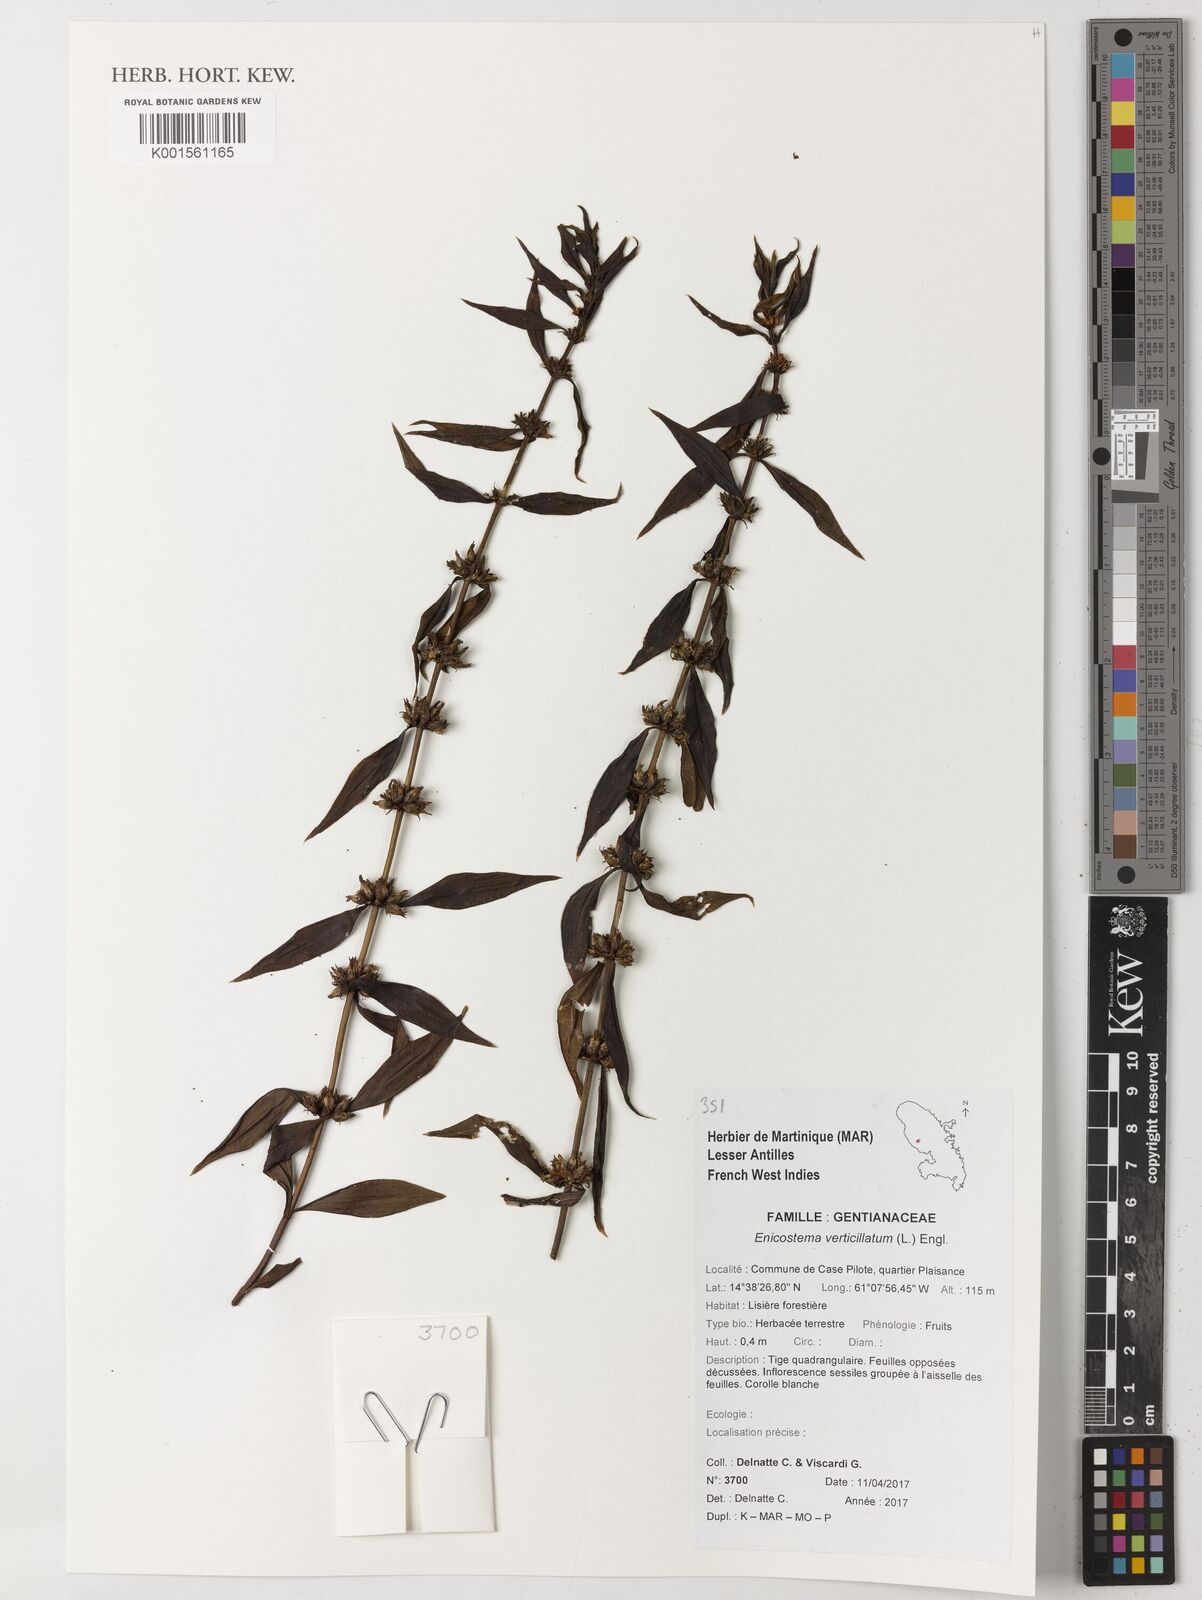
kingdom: Plantae
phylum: Tracheophyta
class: Magnoliopsida
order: Gentianales
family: Gentianaceae
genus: Enicostema
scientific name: Enicostema verticillatum
